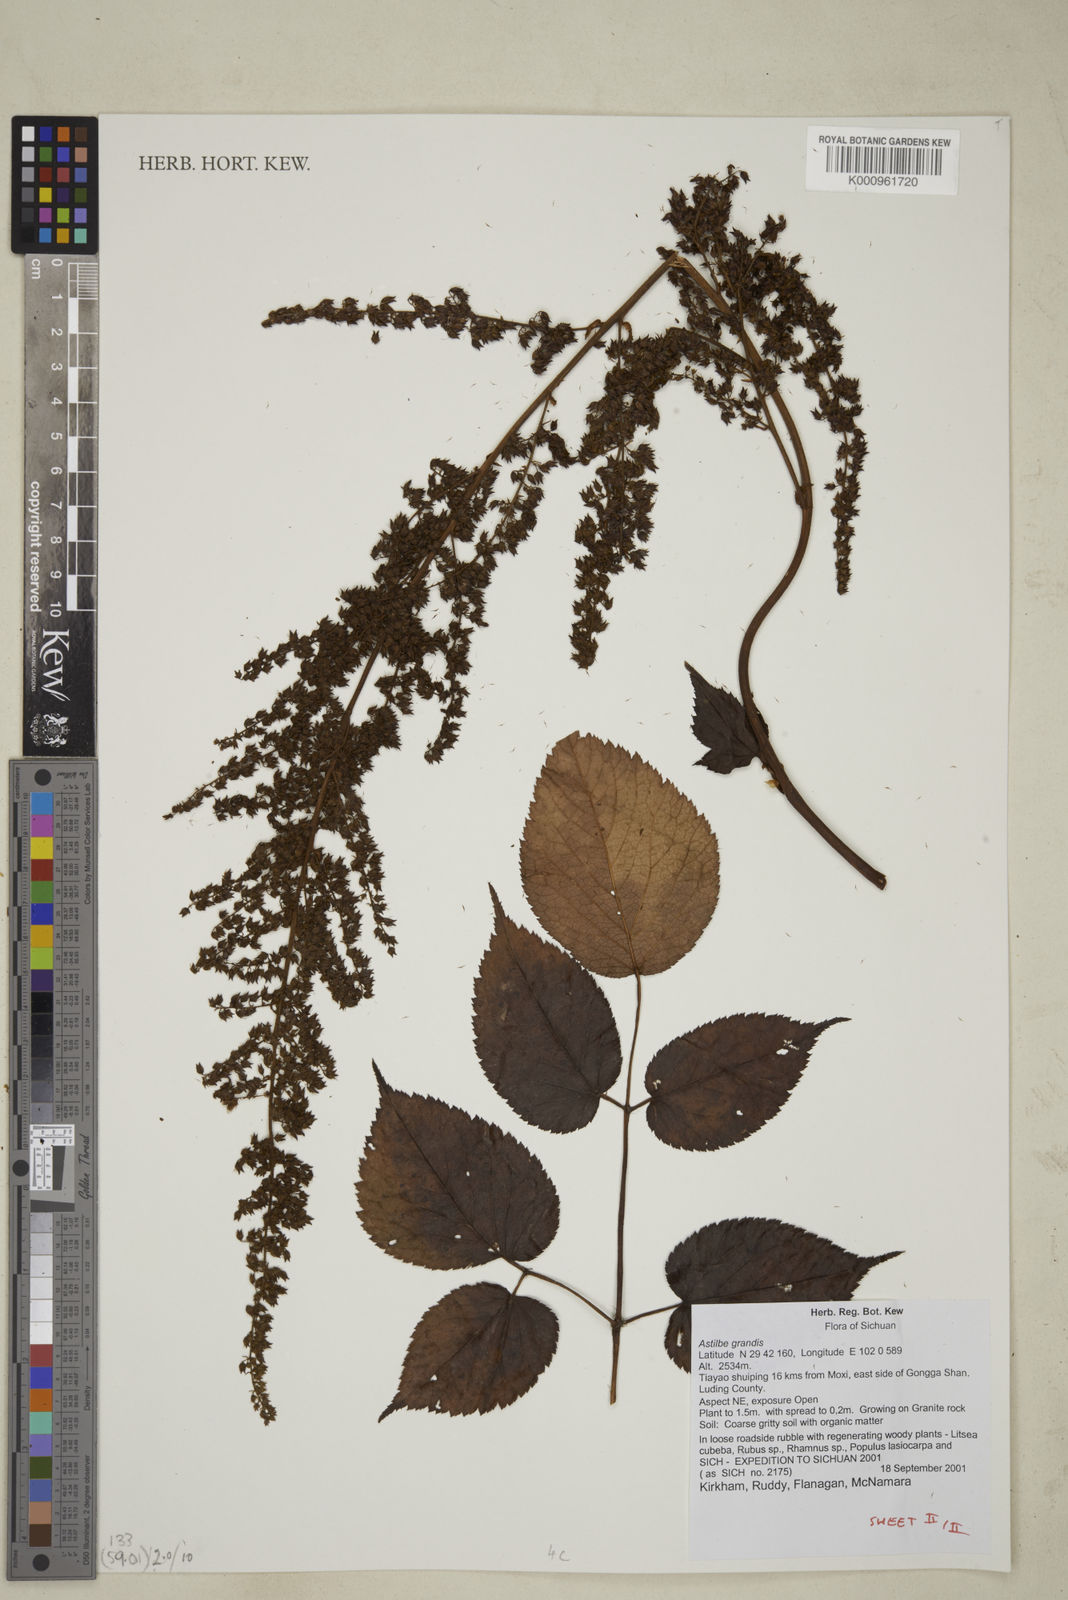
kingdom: Plantae
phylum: Tracheophyta
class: Magnoliopsida
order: Saxifragales
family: Saxifragaceae
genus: Astilbe
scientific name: Astilbe grandis
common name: Korean astilbe
